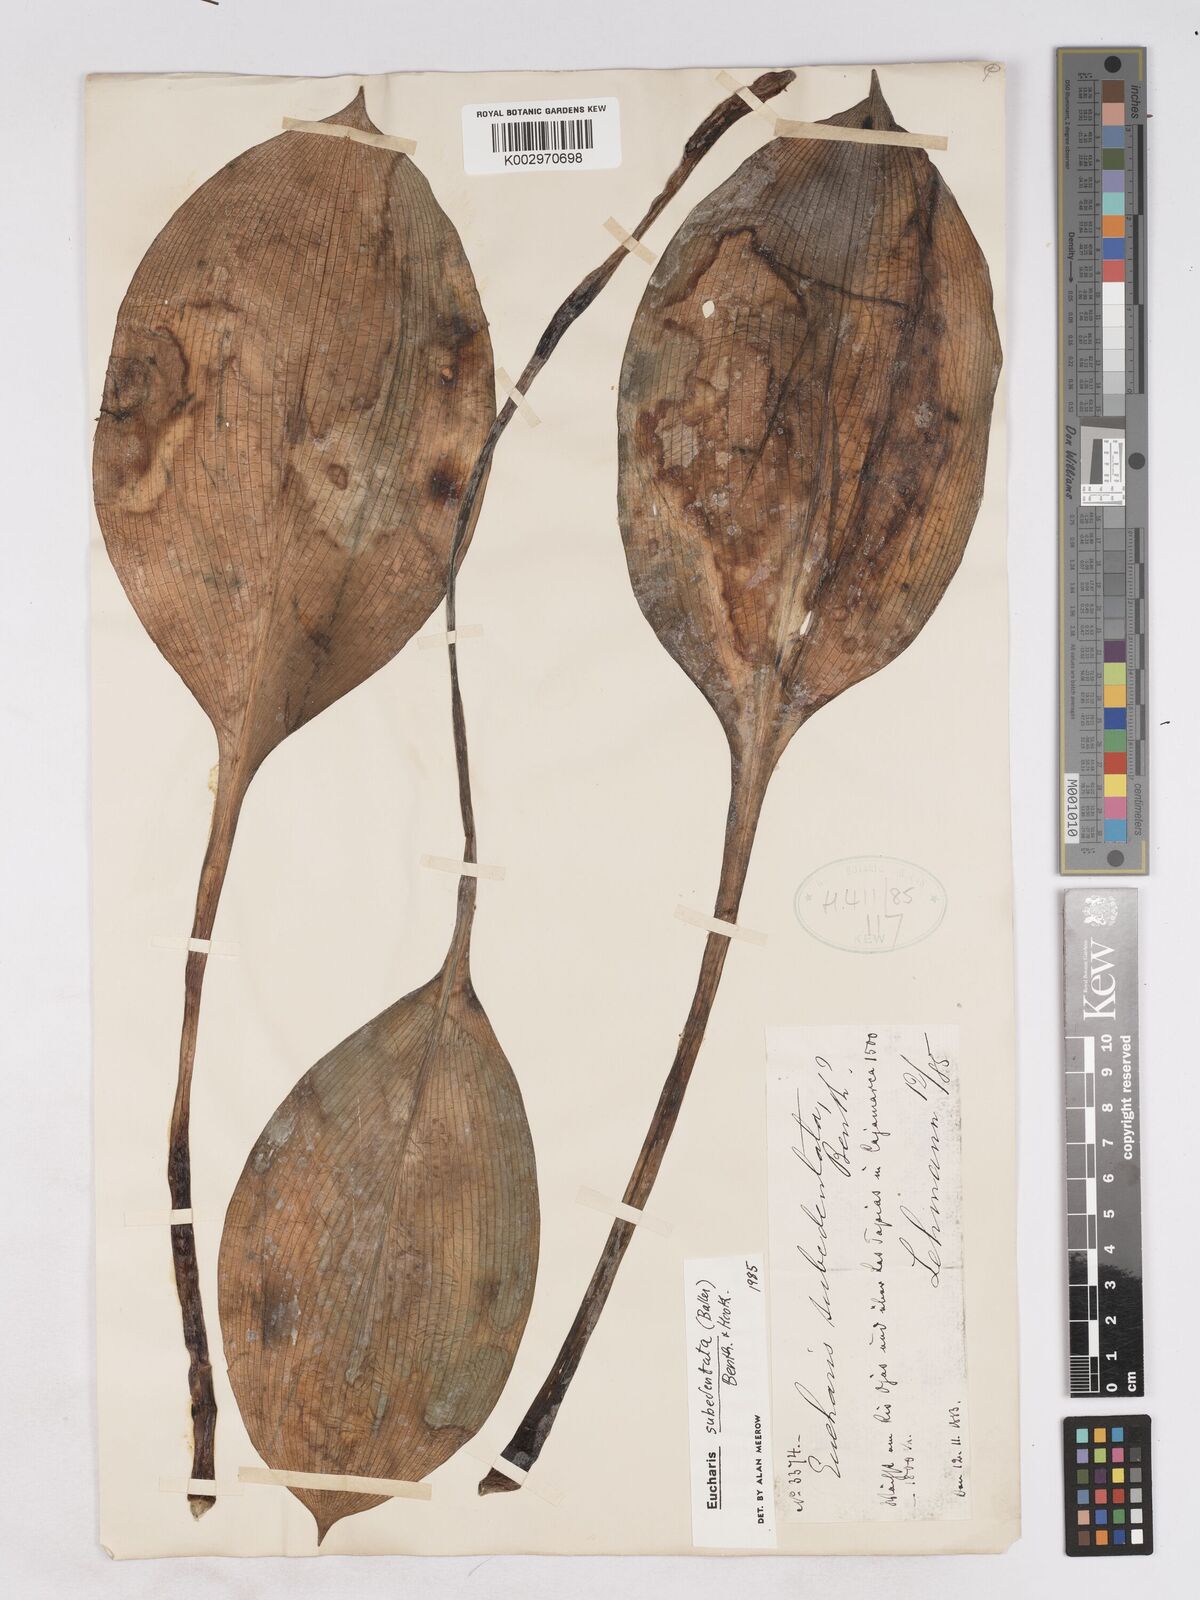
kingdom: Plantae
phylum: Tracheophyta
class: Liliopsida
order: Asparagales
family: Amaryllidaceae
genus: Urceolina
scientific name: Urceolina subedentata
